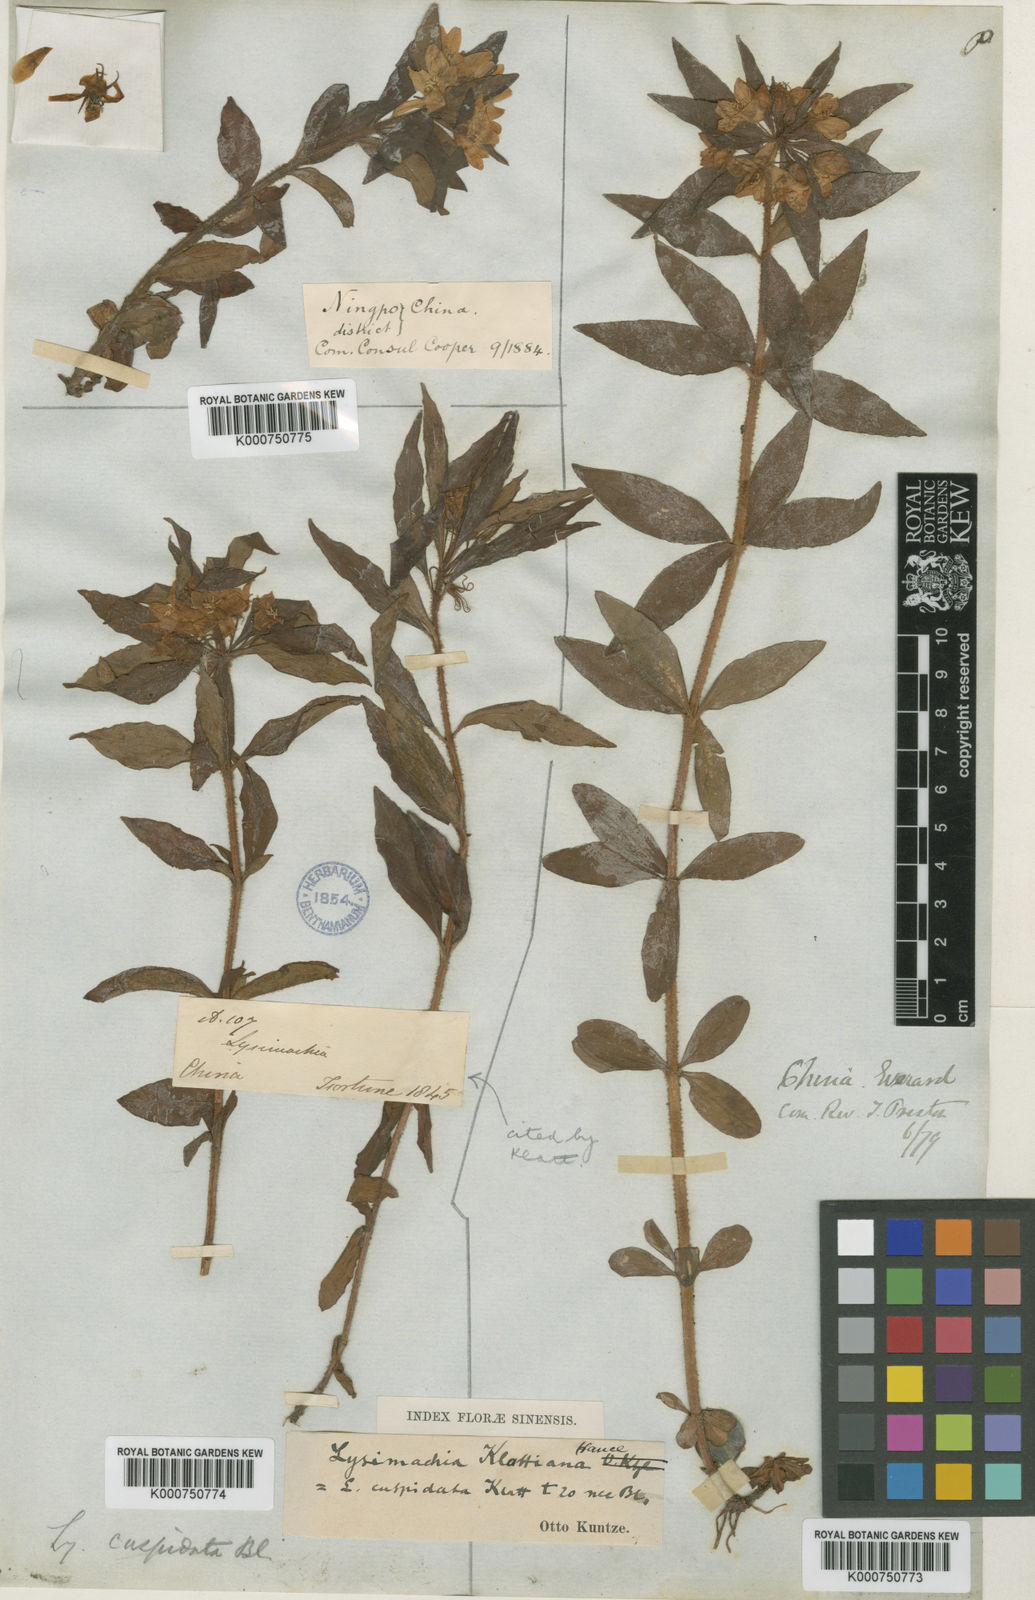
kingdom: Plantae
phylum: Tracheophyta
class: Magnoliopsida
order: Ericales
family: Primulaceae
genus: Lysimachia
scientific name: Lysimachia klattiana
